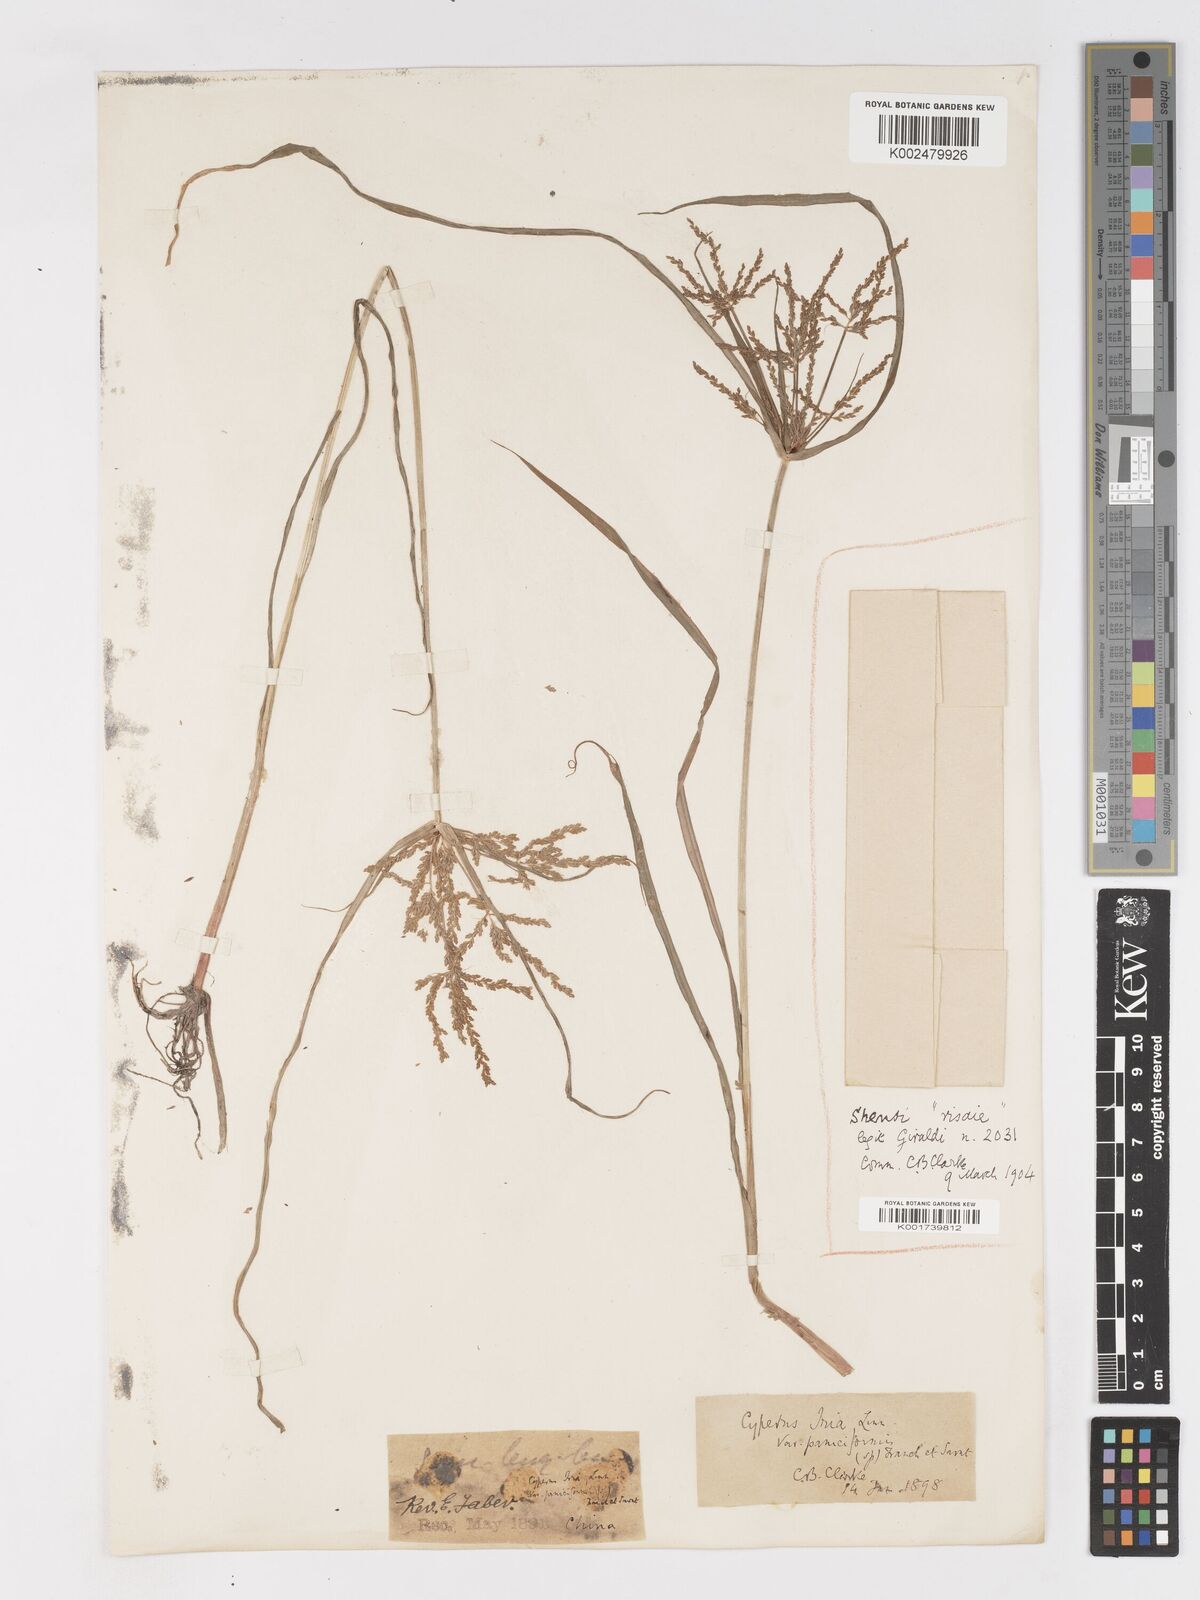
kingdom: Plantae
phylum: Tracheophyta
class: Liliopsida
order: Poales
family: Cyperaceae
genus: Cyperus
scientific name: Cyperus iria
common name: Ricefield flatsedge
